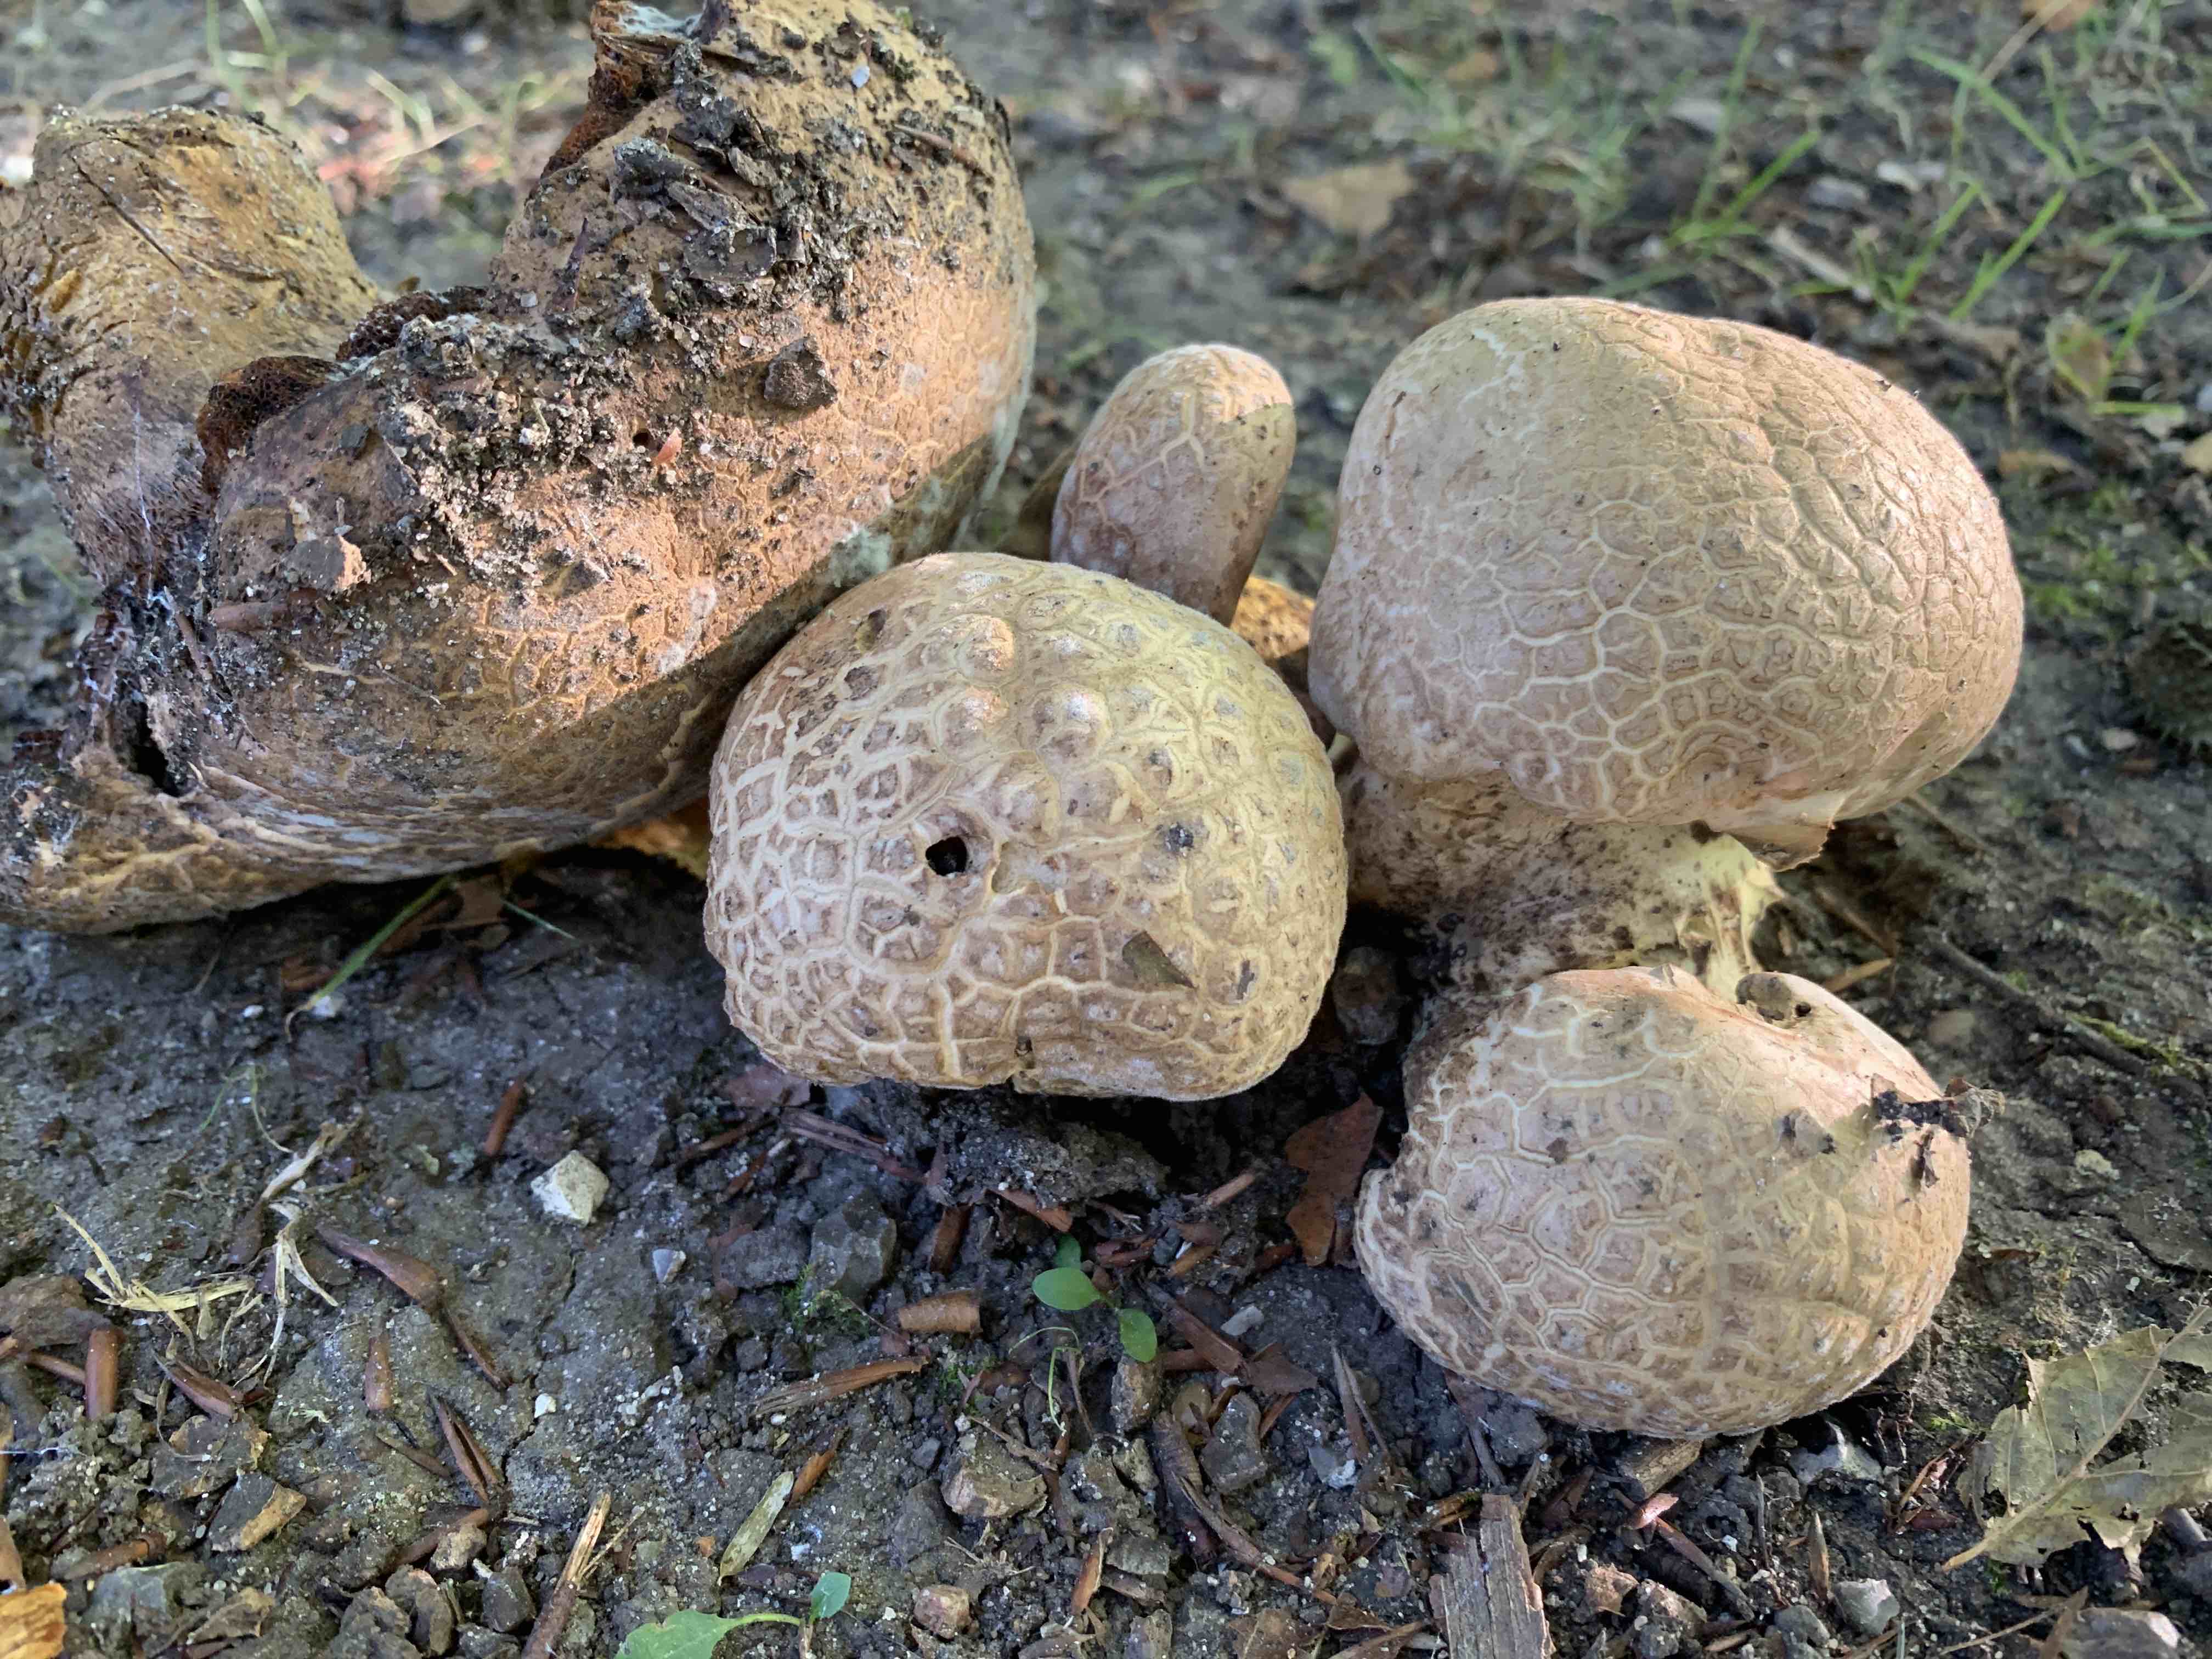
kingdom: Fungi
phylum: Basidiomycota
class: Agaricomycetes
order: Boletales
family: Boletaceae
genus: Caloboletus
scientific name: Caloboletus radicans
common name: rod-rørhat
